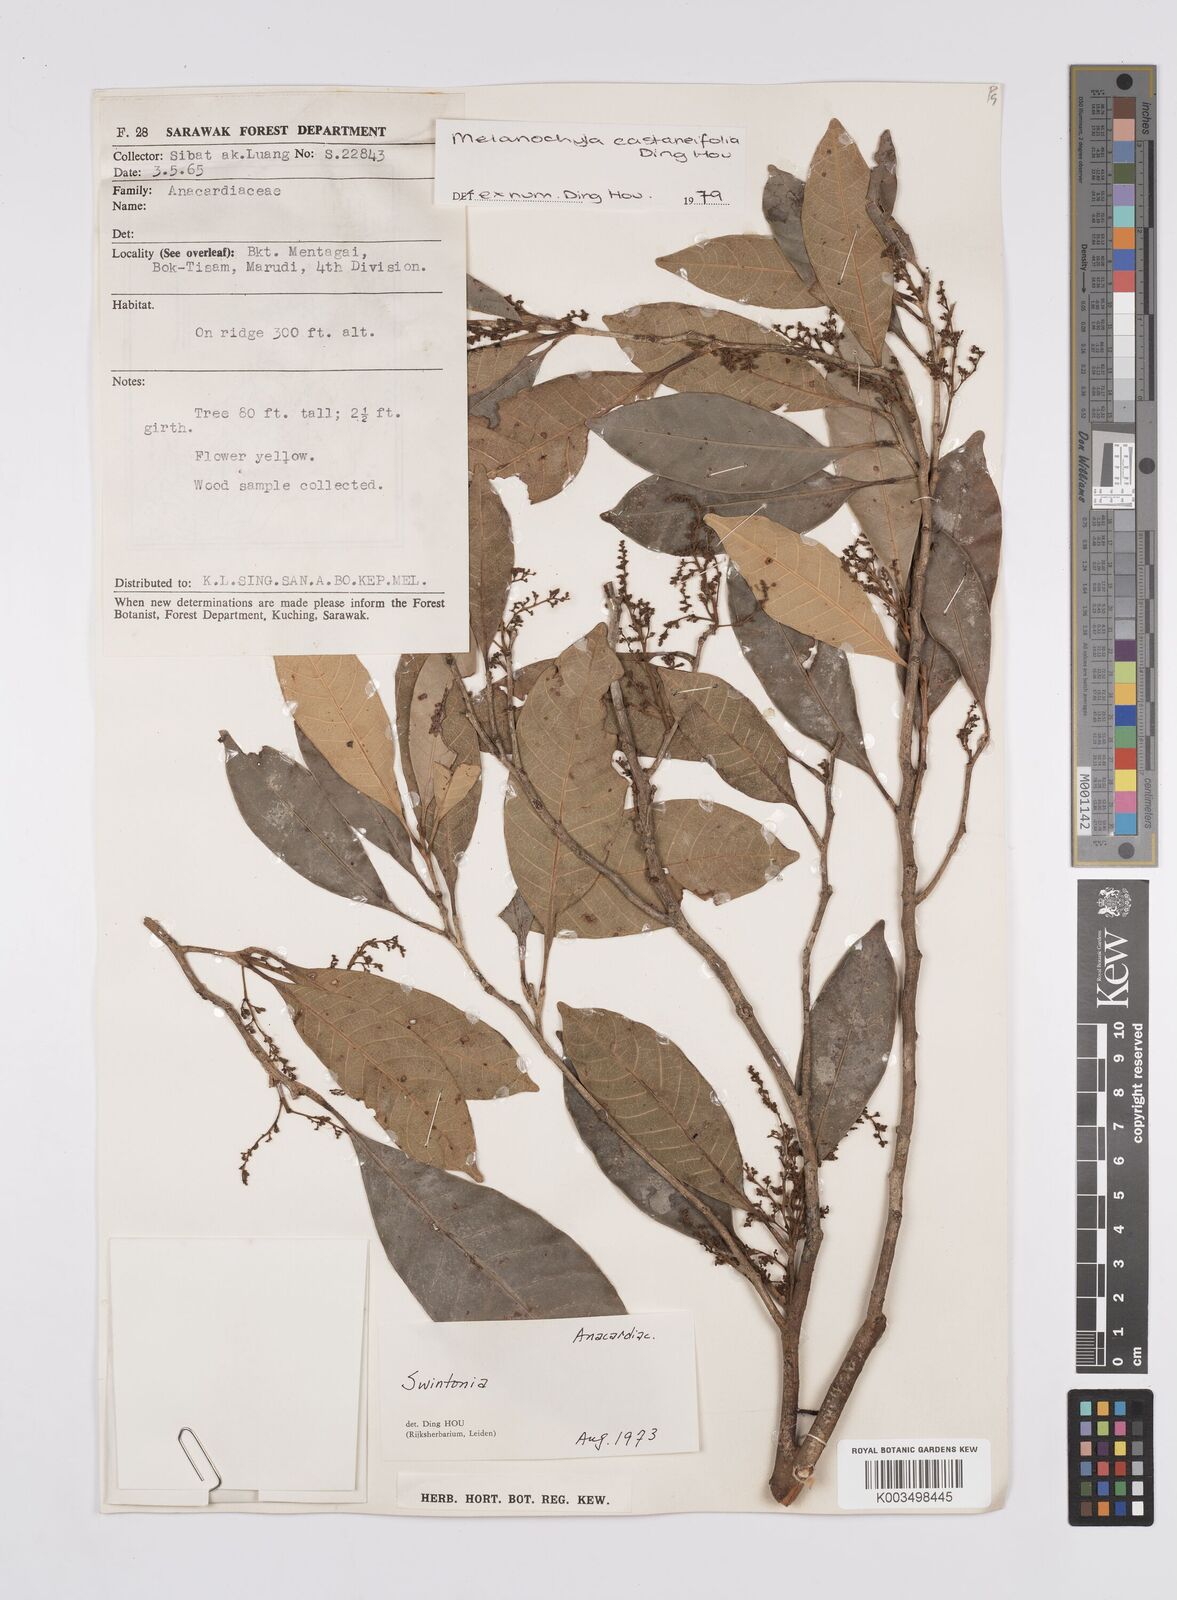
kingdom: Plantae
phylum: Tracheophyta
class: Magnoliopsida
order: Sapindales
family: Anacardiaceae
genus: Melanochyla
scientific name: Melanochyla castaneifolia
